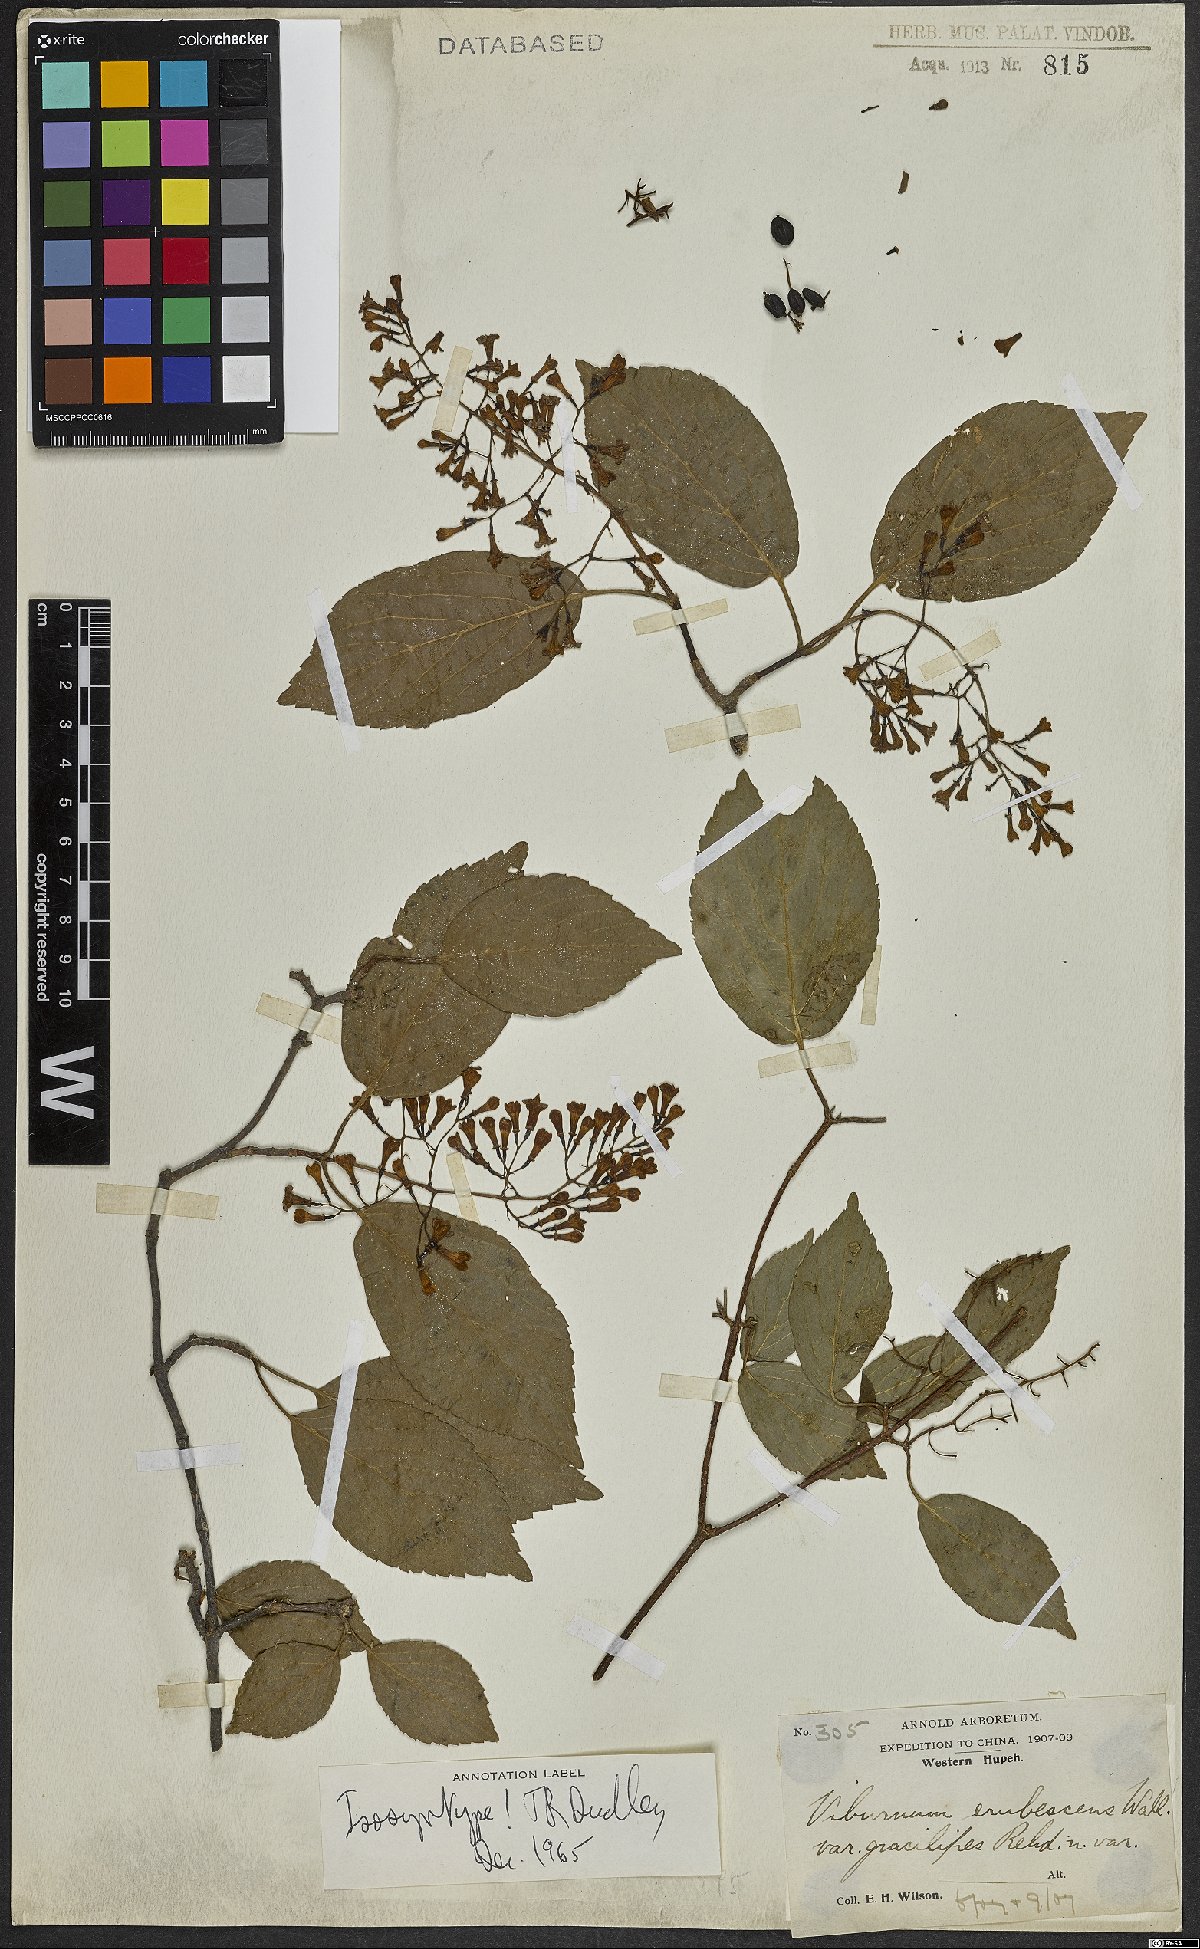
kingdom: Plantae
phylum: Tracheophyta
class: Magnoliopsida
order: Dipsacales
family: Viburnaceae
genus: Viburnum
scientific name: Viburnum erubescens
